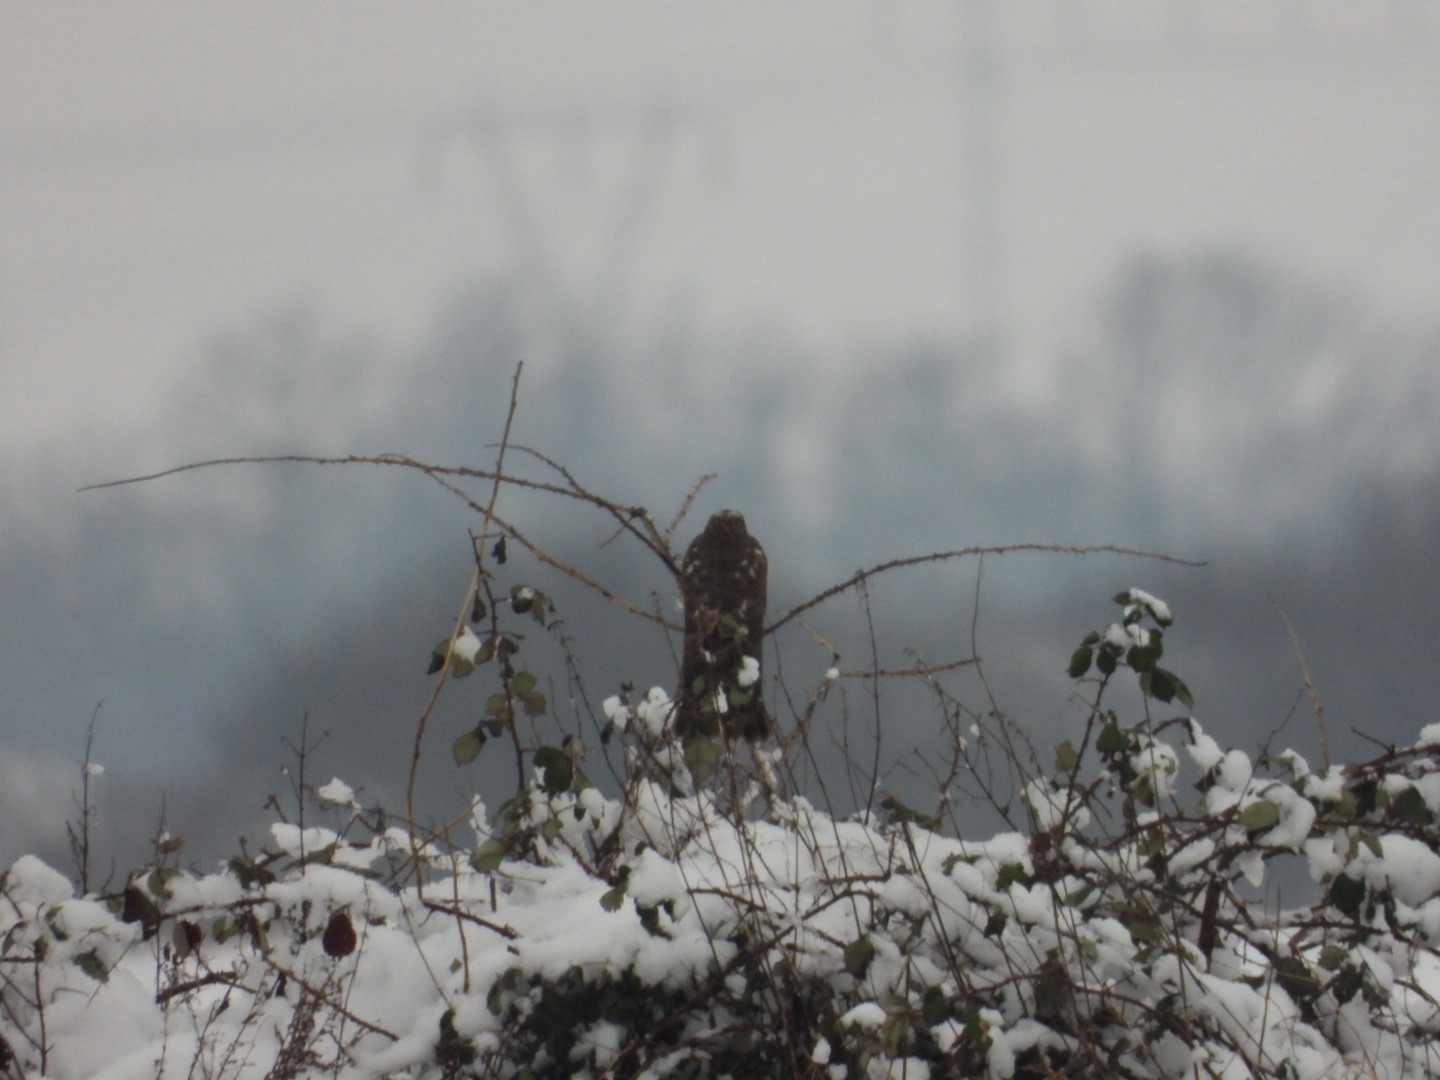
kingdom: Animalia
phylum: Chordata
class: Aves
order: Accipitriformes
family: Accipitridae
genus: Accipiter
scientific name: Accipiter nisus
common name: Spurvehøg
